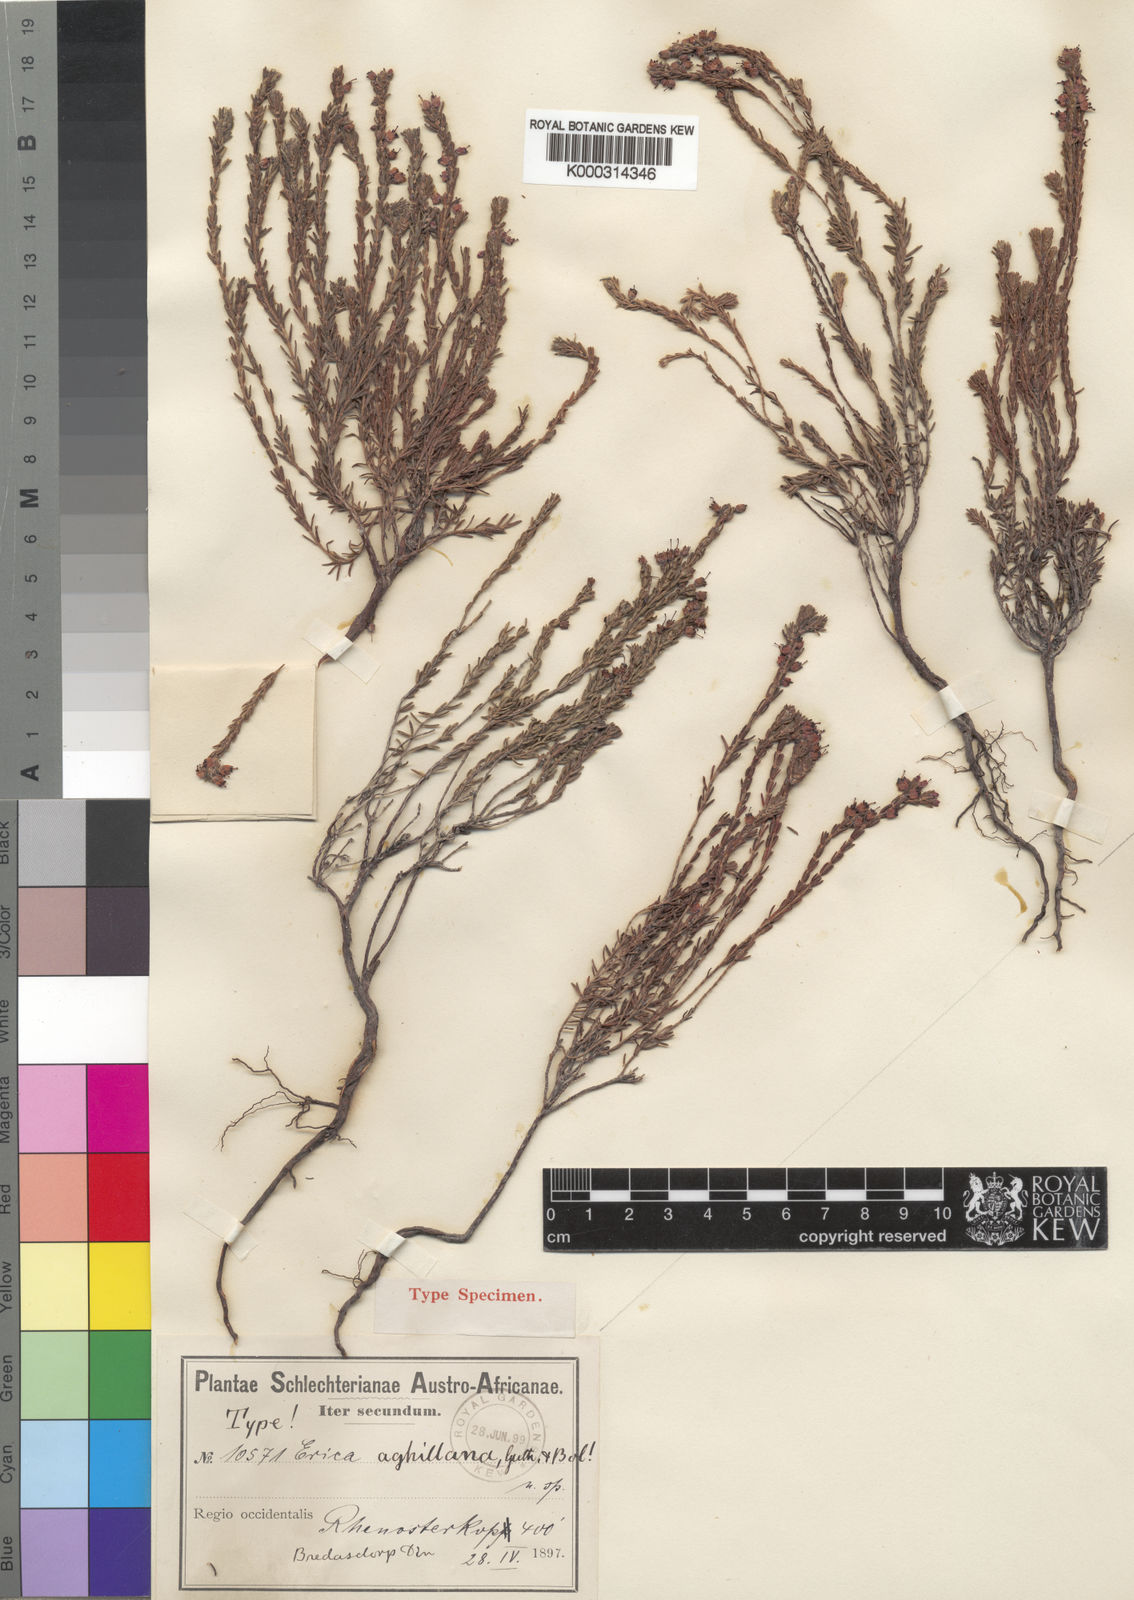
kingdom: Plantae
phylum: Tracheophyta
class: Magnoliopsida
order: Ericales
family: Ericaceae
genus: Erica
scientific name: Erica aghillana
